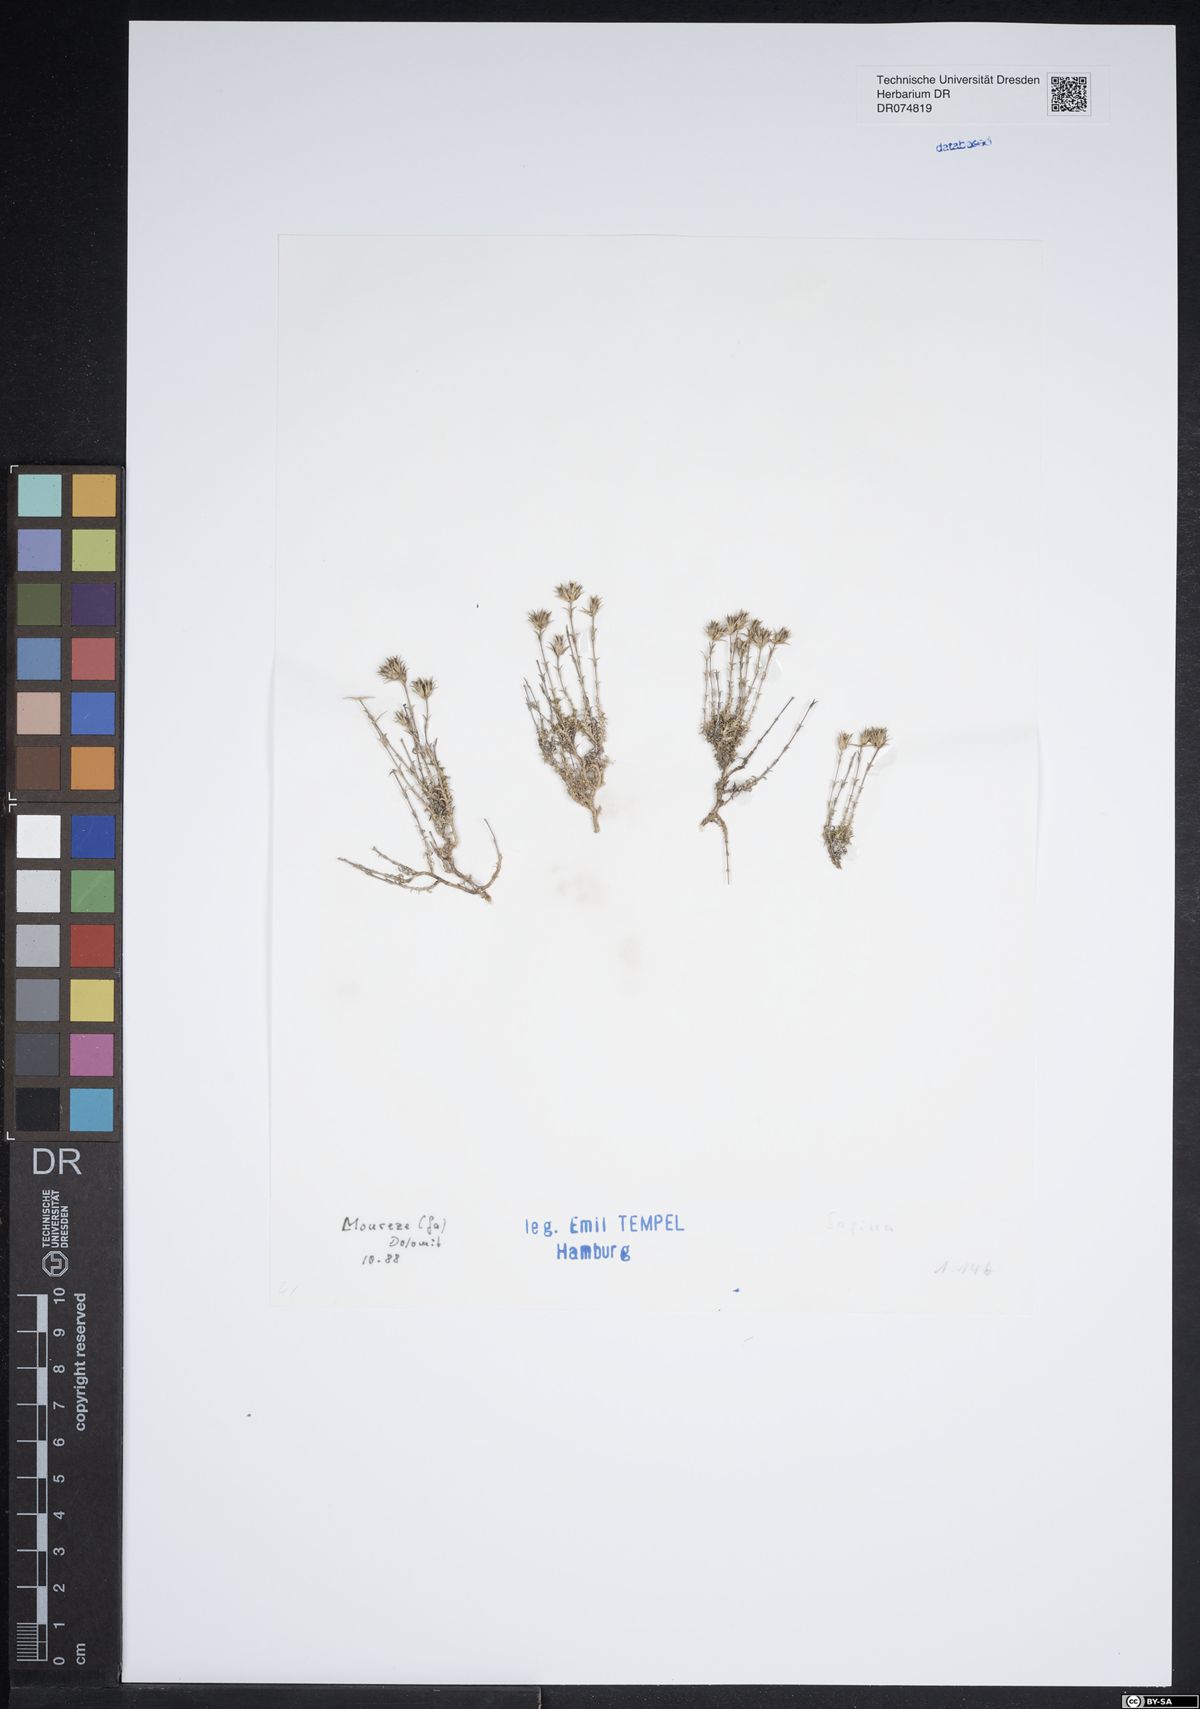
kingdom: Plantae
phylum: Tracheophyta
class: Magnoliopsida
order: Caryophyllales
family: Caryophyllaceae
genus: Sagina
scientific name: Sagina
